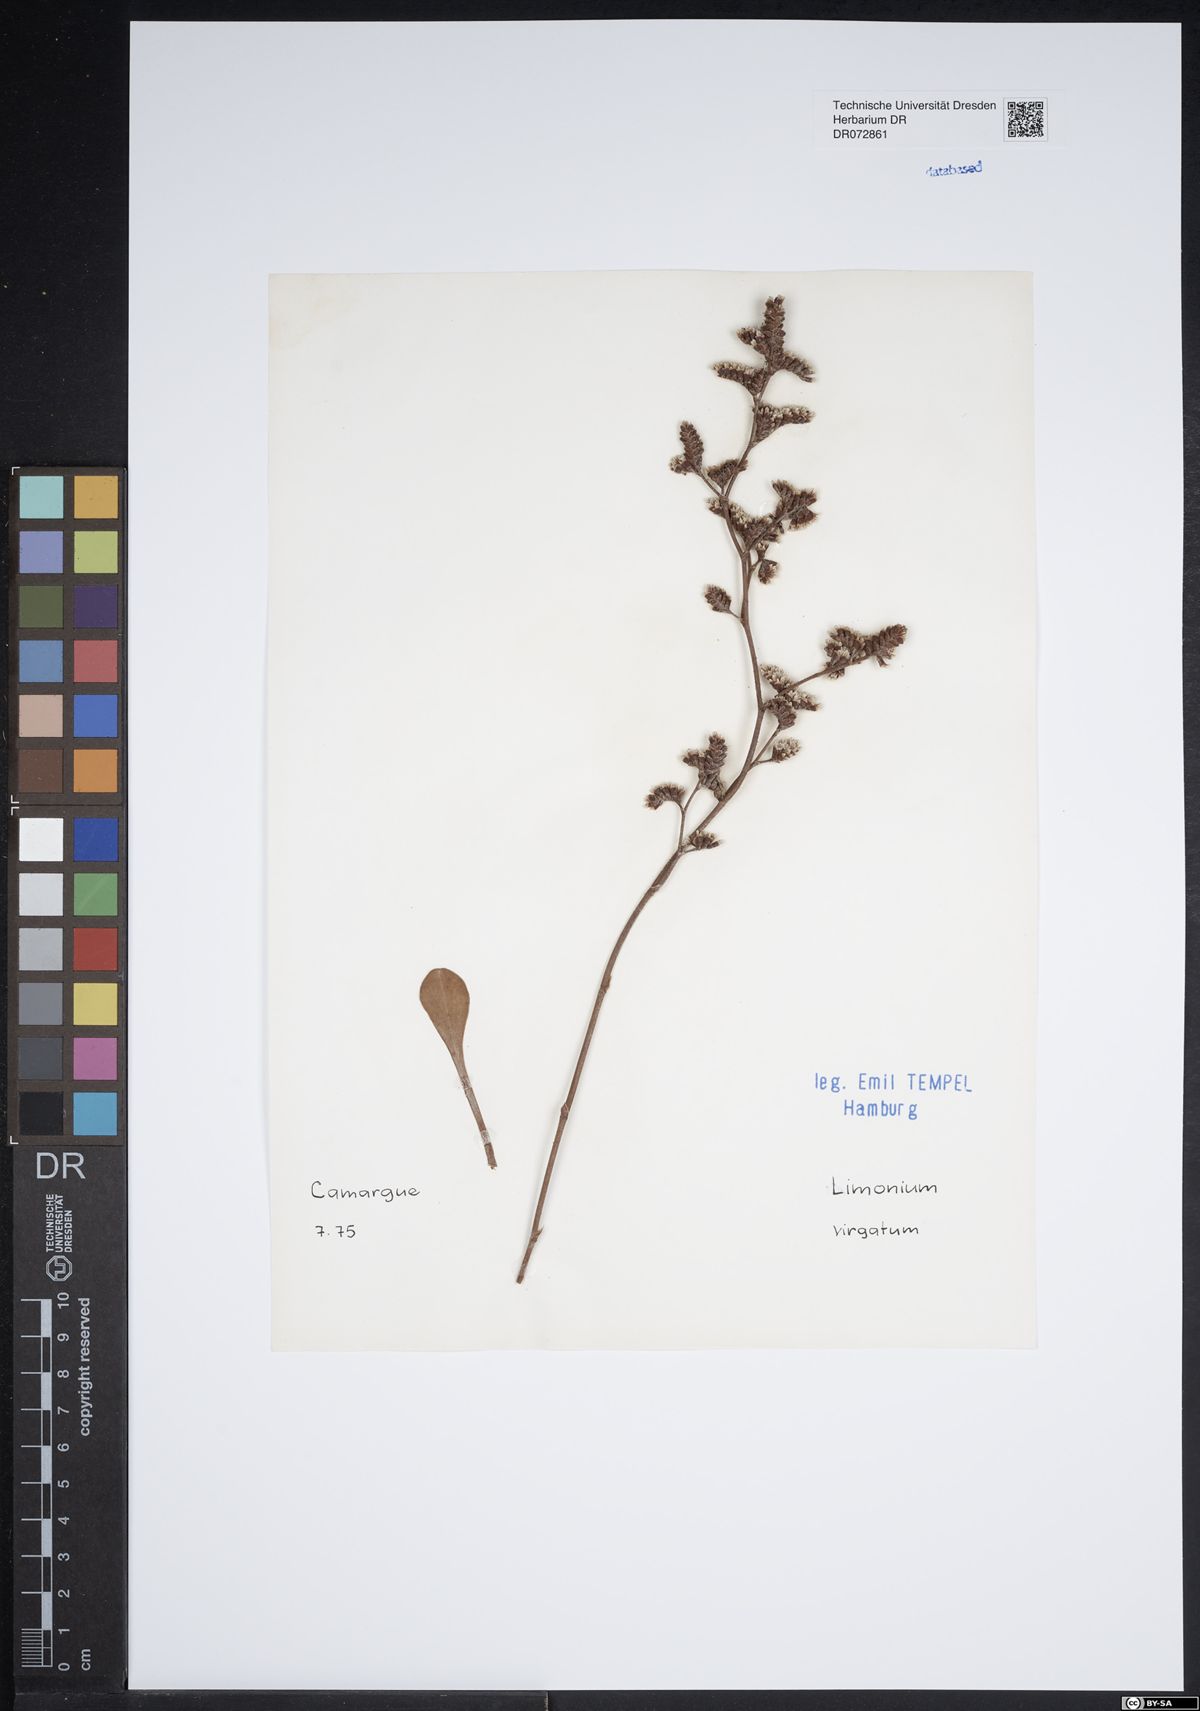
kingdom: Plantae
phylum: Tracheophyta
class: Magnoliopsida
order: Caryophyllales
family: Plumbaginaceae
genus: Limonium
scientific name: Limonium virgatum
